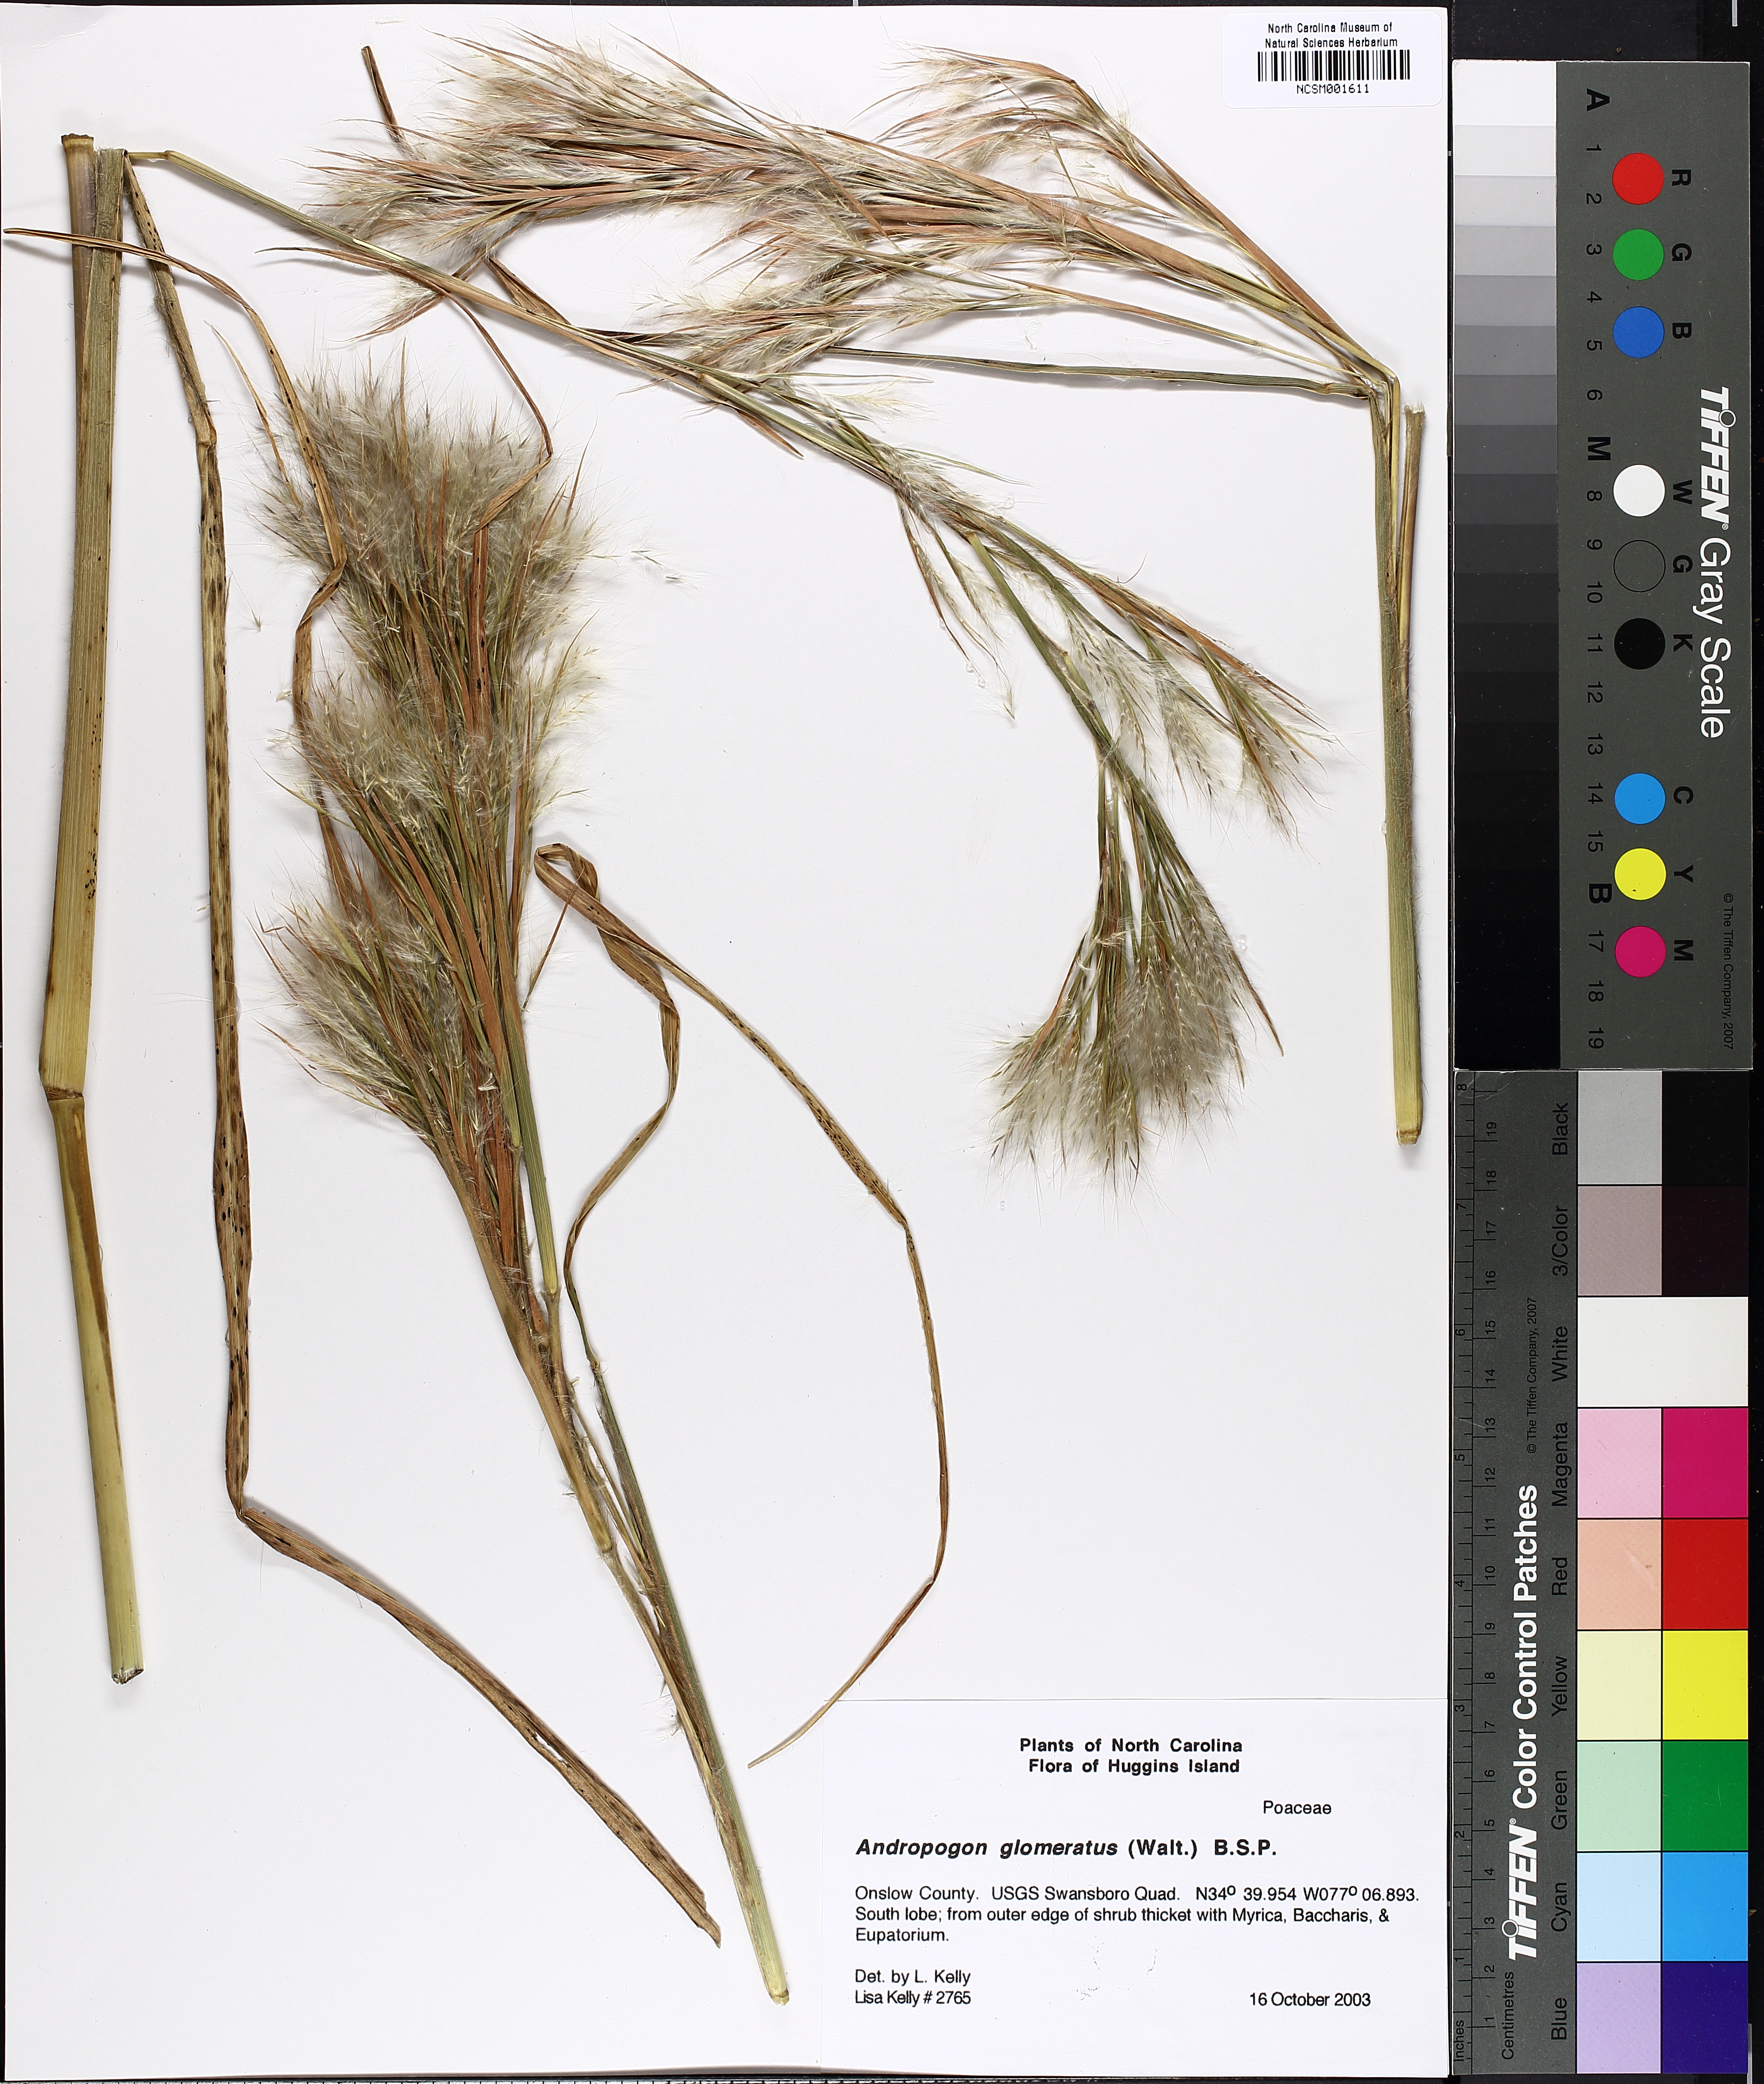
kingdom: Plantae
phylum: Tracheophyta
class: Liliopsida
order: Poales
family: Poaceae
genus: Andropogon
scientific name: Andropogon glomeratus
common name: Bushy beard grass
